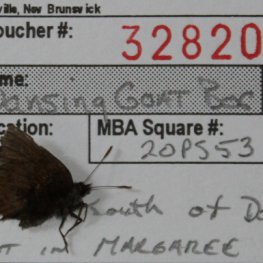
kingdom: Animalia
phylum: Arthropoda
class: Insecta
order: Lepidoptera
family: Lycaenidae
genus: Incisalia
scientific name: Incisalia irioides
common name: Brown Elfin
